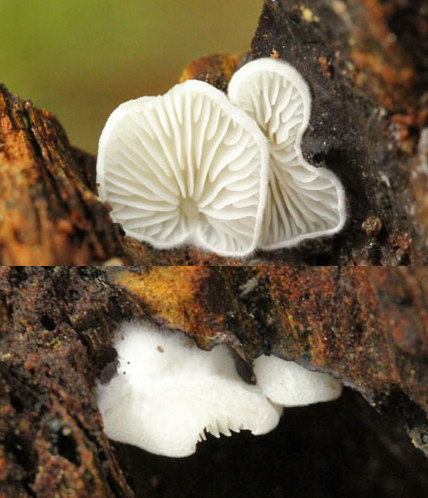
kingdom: Fungi
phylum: Basidiomycota
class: Agaricomycetes
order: Agaricales
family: Entolomataceae
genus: Clitopilus
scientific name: Clitopilus hobsonii
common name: Miller's oysterling
